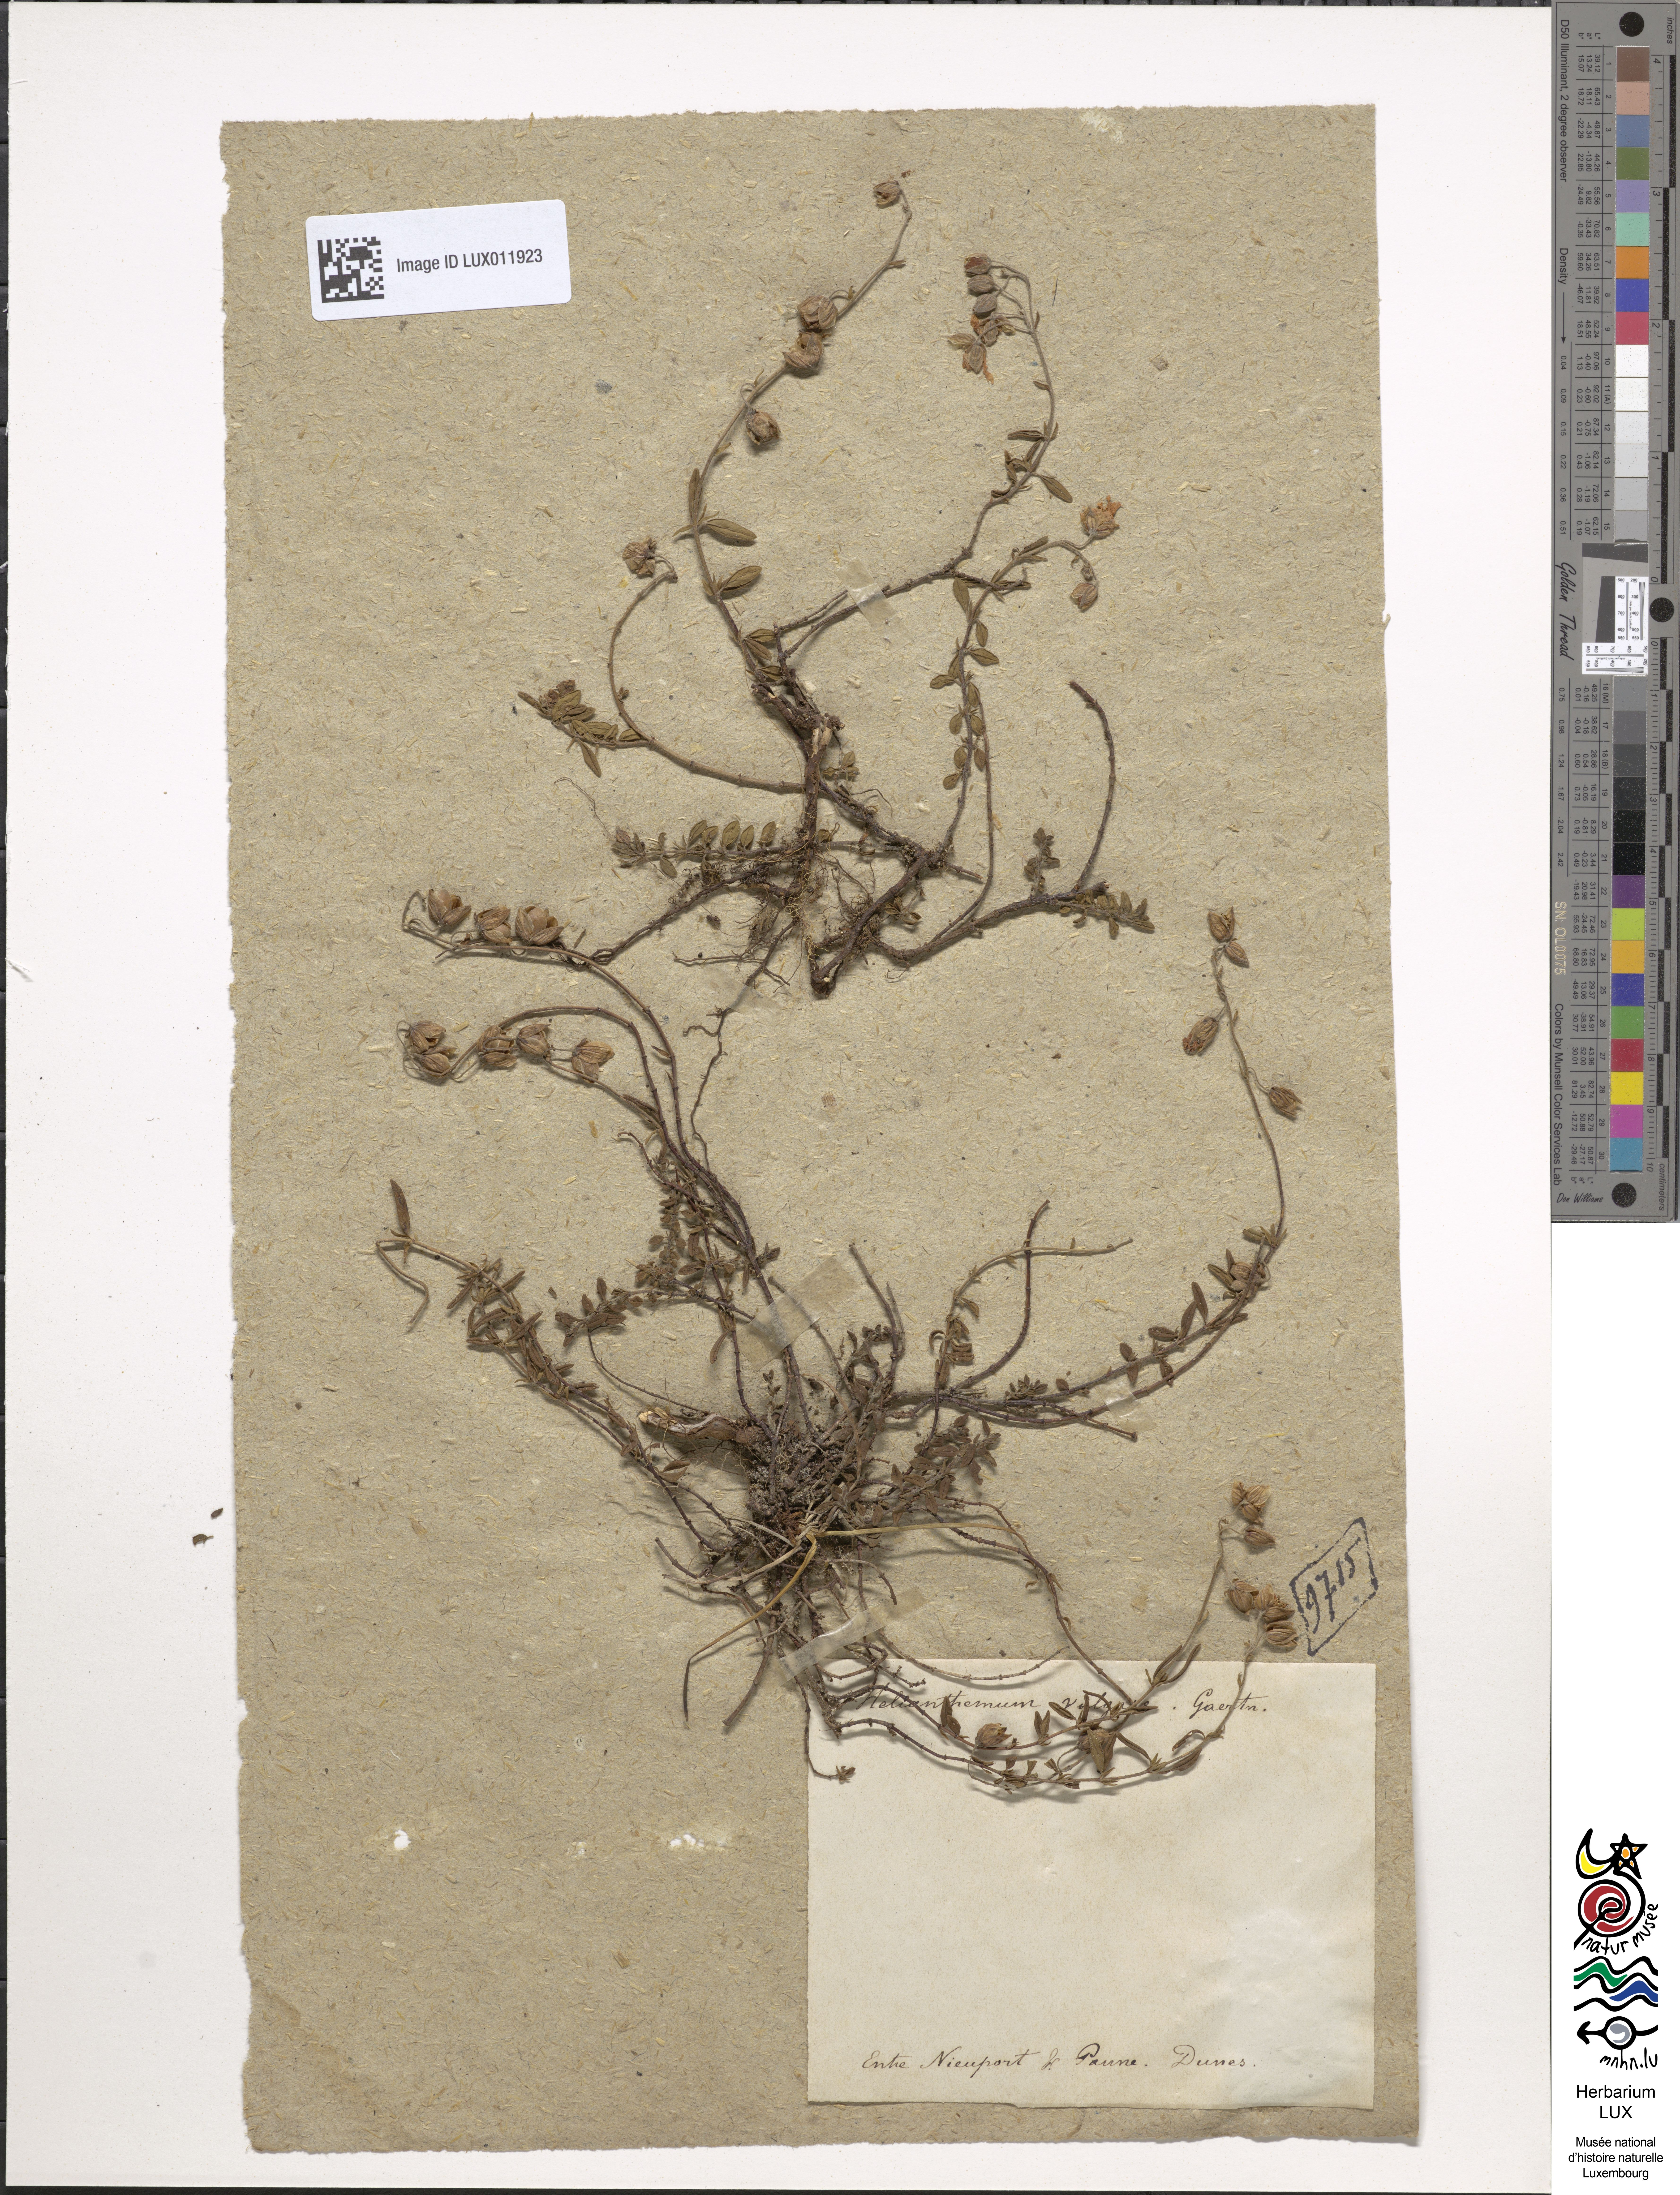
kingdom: Plantae
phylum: Tracheophyta
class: Magnoliopsida
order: Malvales
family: Cistaceae
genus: Helianthemum
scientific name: Helianthemum nummularium
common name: Common rock-rose
